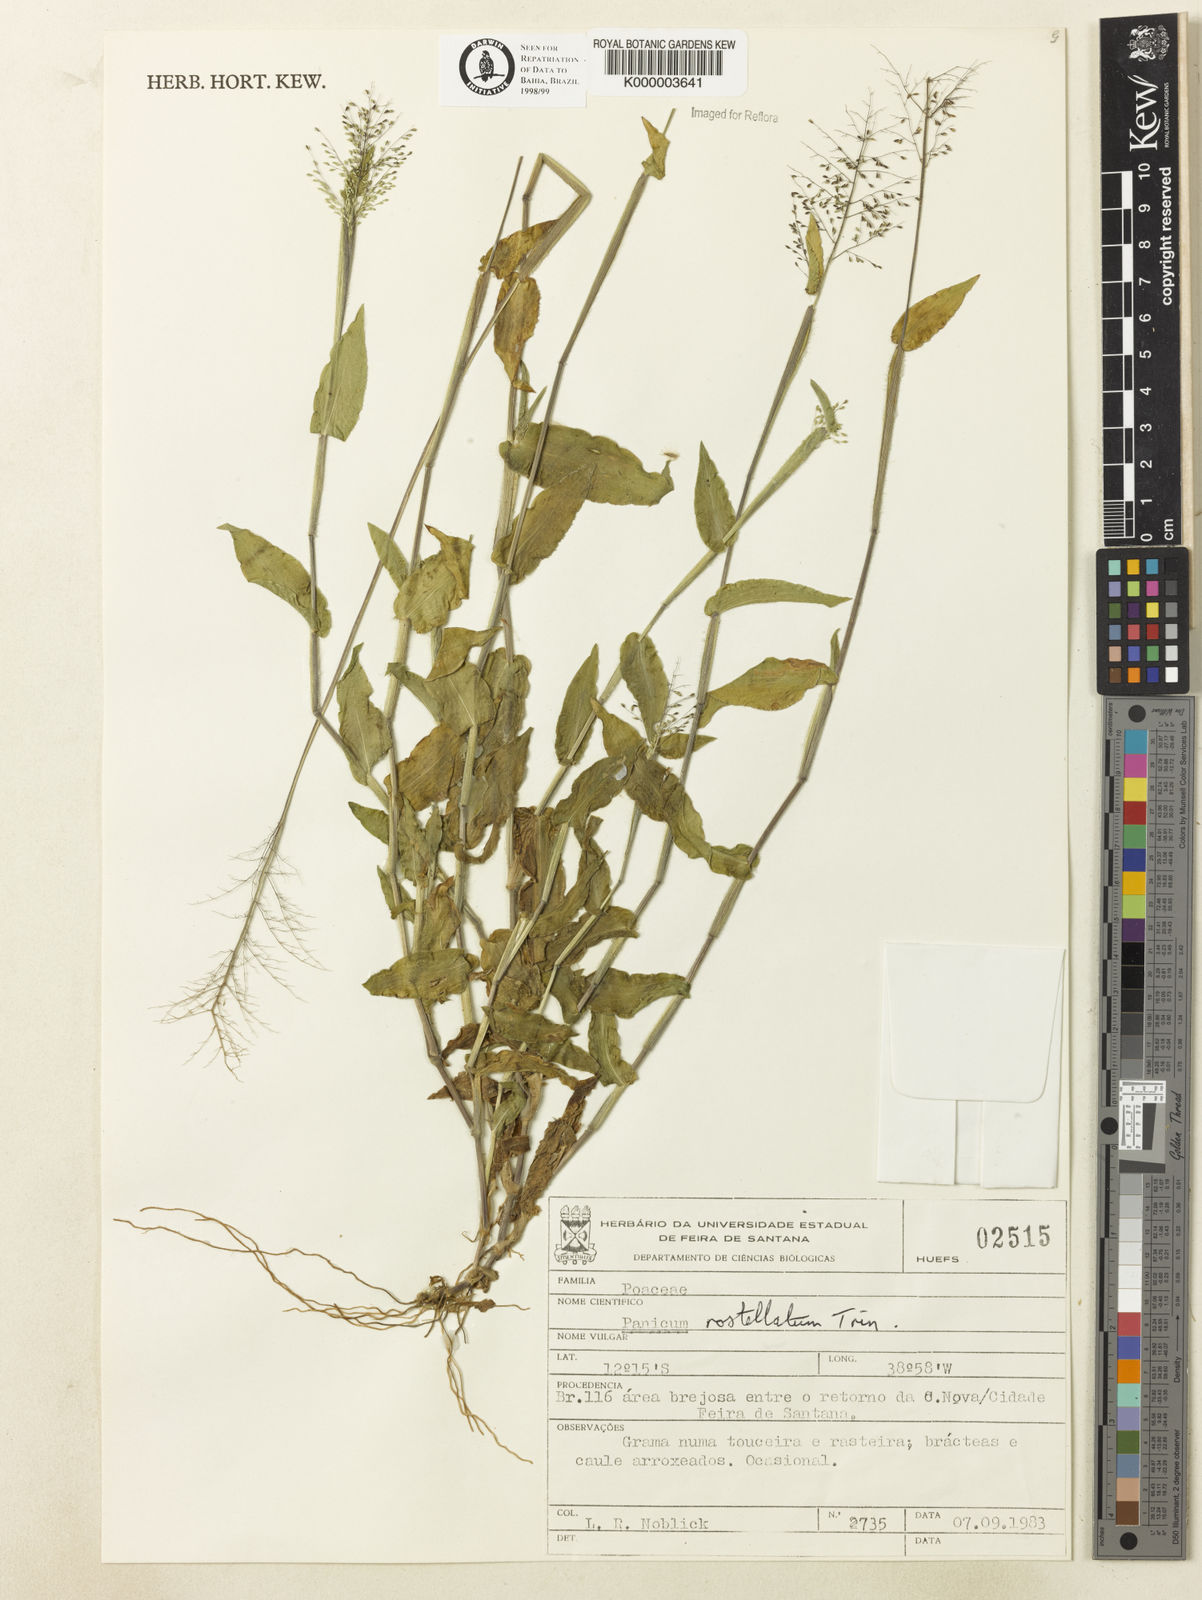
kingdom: Plantae
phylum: Tracheophyta
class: Liliopsida
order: Poales
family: Poaceae
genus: Dichanthelium
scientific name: Dichanthelium sciurotis
